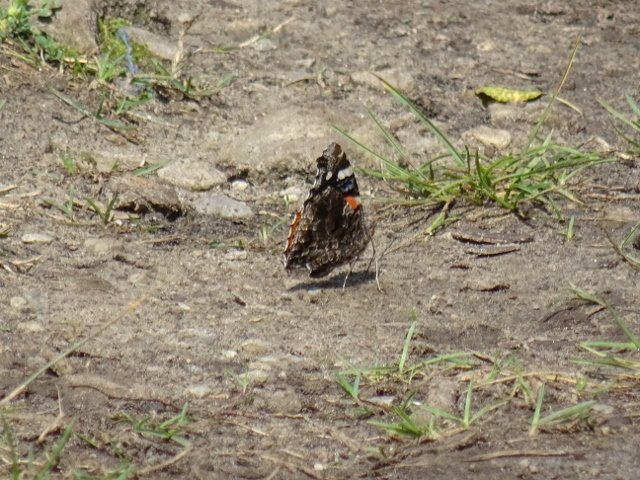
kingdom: Animalia
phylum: Arthropoda
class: Insecta
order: Lepidoptera
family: Nymphalidae
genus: Vanessa
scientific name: Vanessa atalanta
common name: Red Admiral
